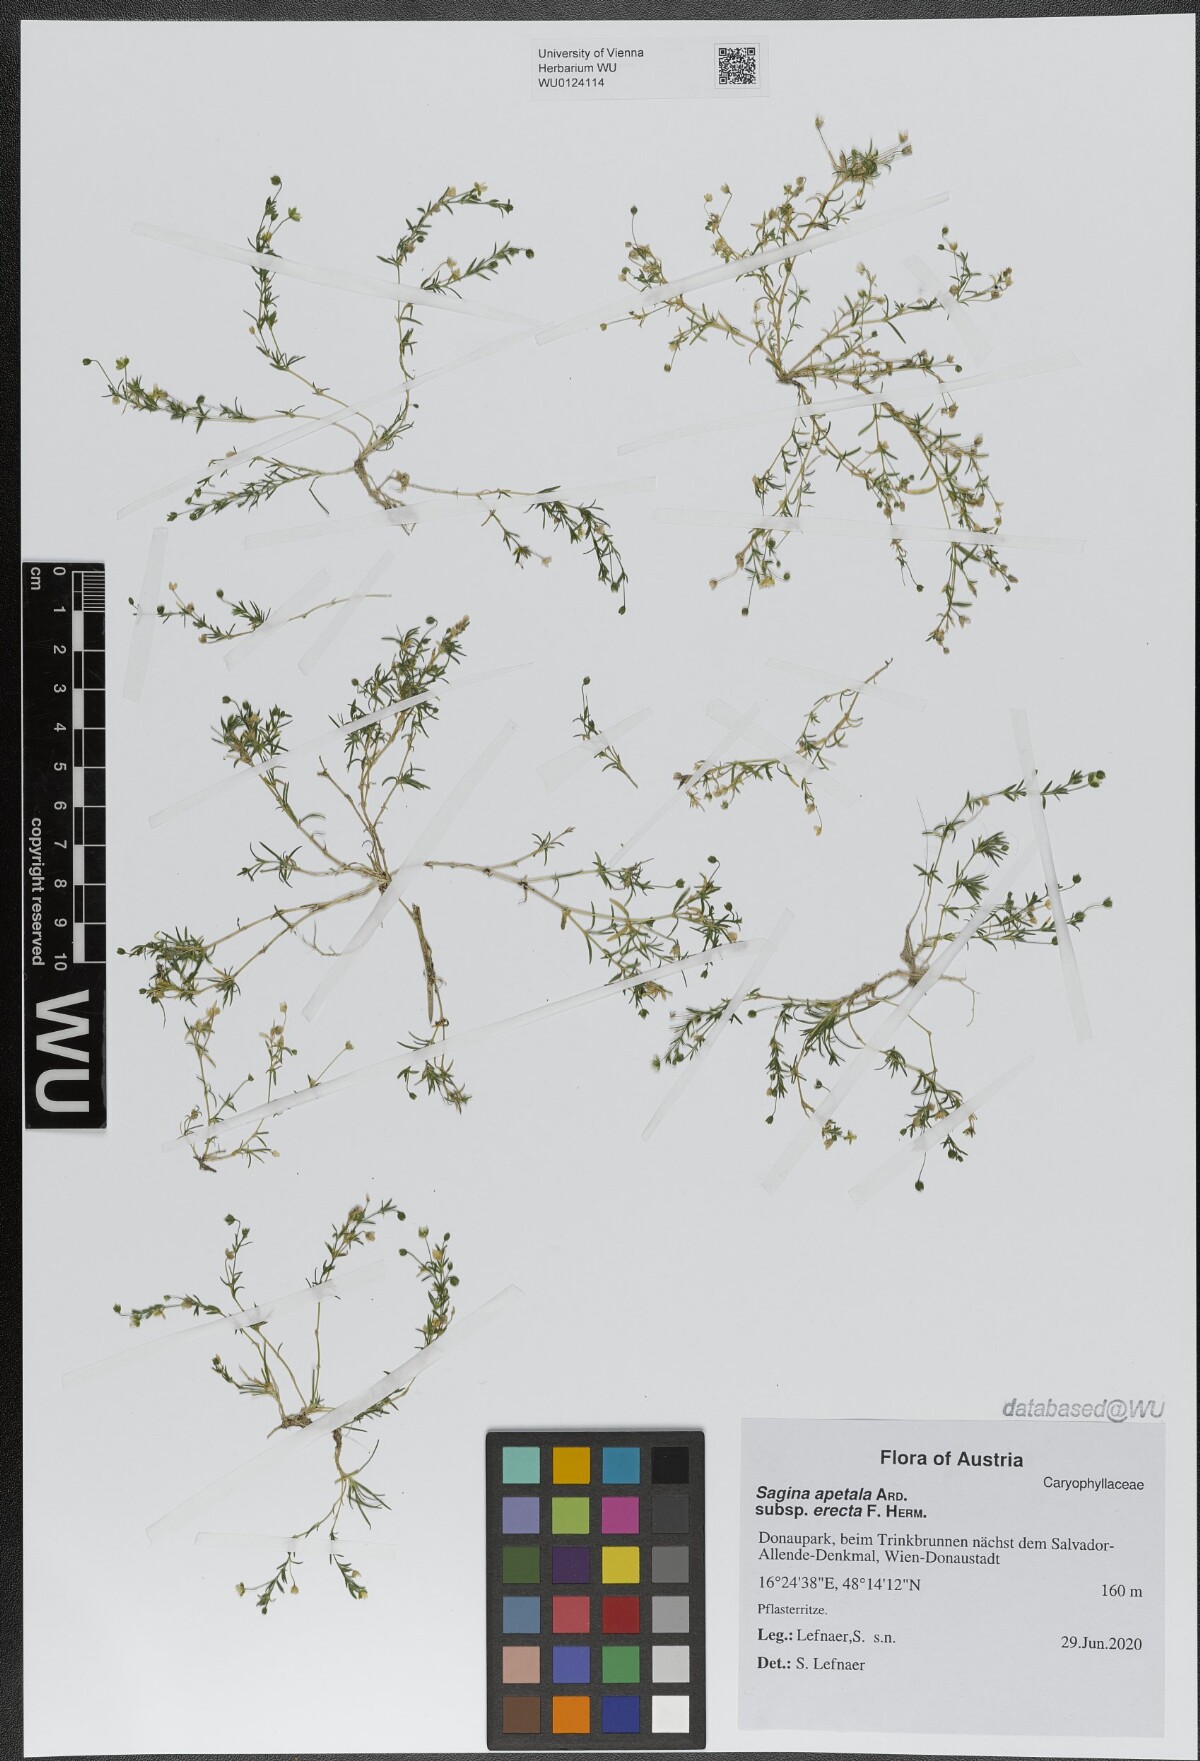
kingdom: Plantae
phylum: Tracheophyta
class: Magnoliopsida
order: Caryophyllales
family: Caryophyllaceae
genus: Sagina
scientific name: Sagina micropetala
